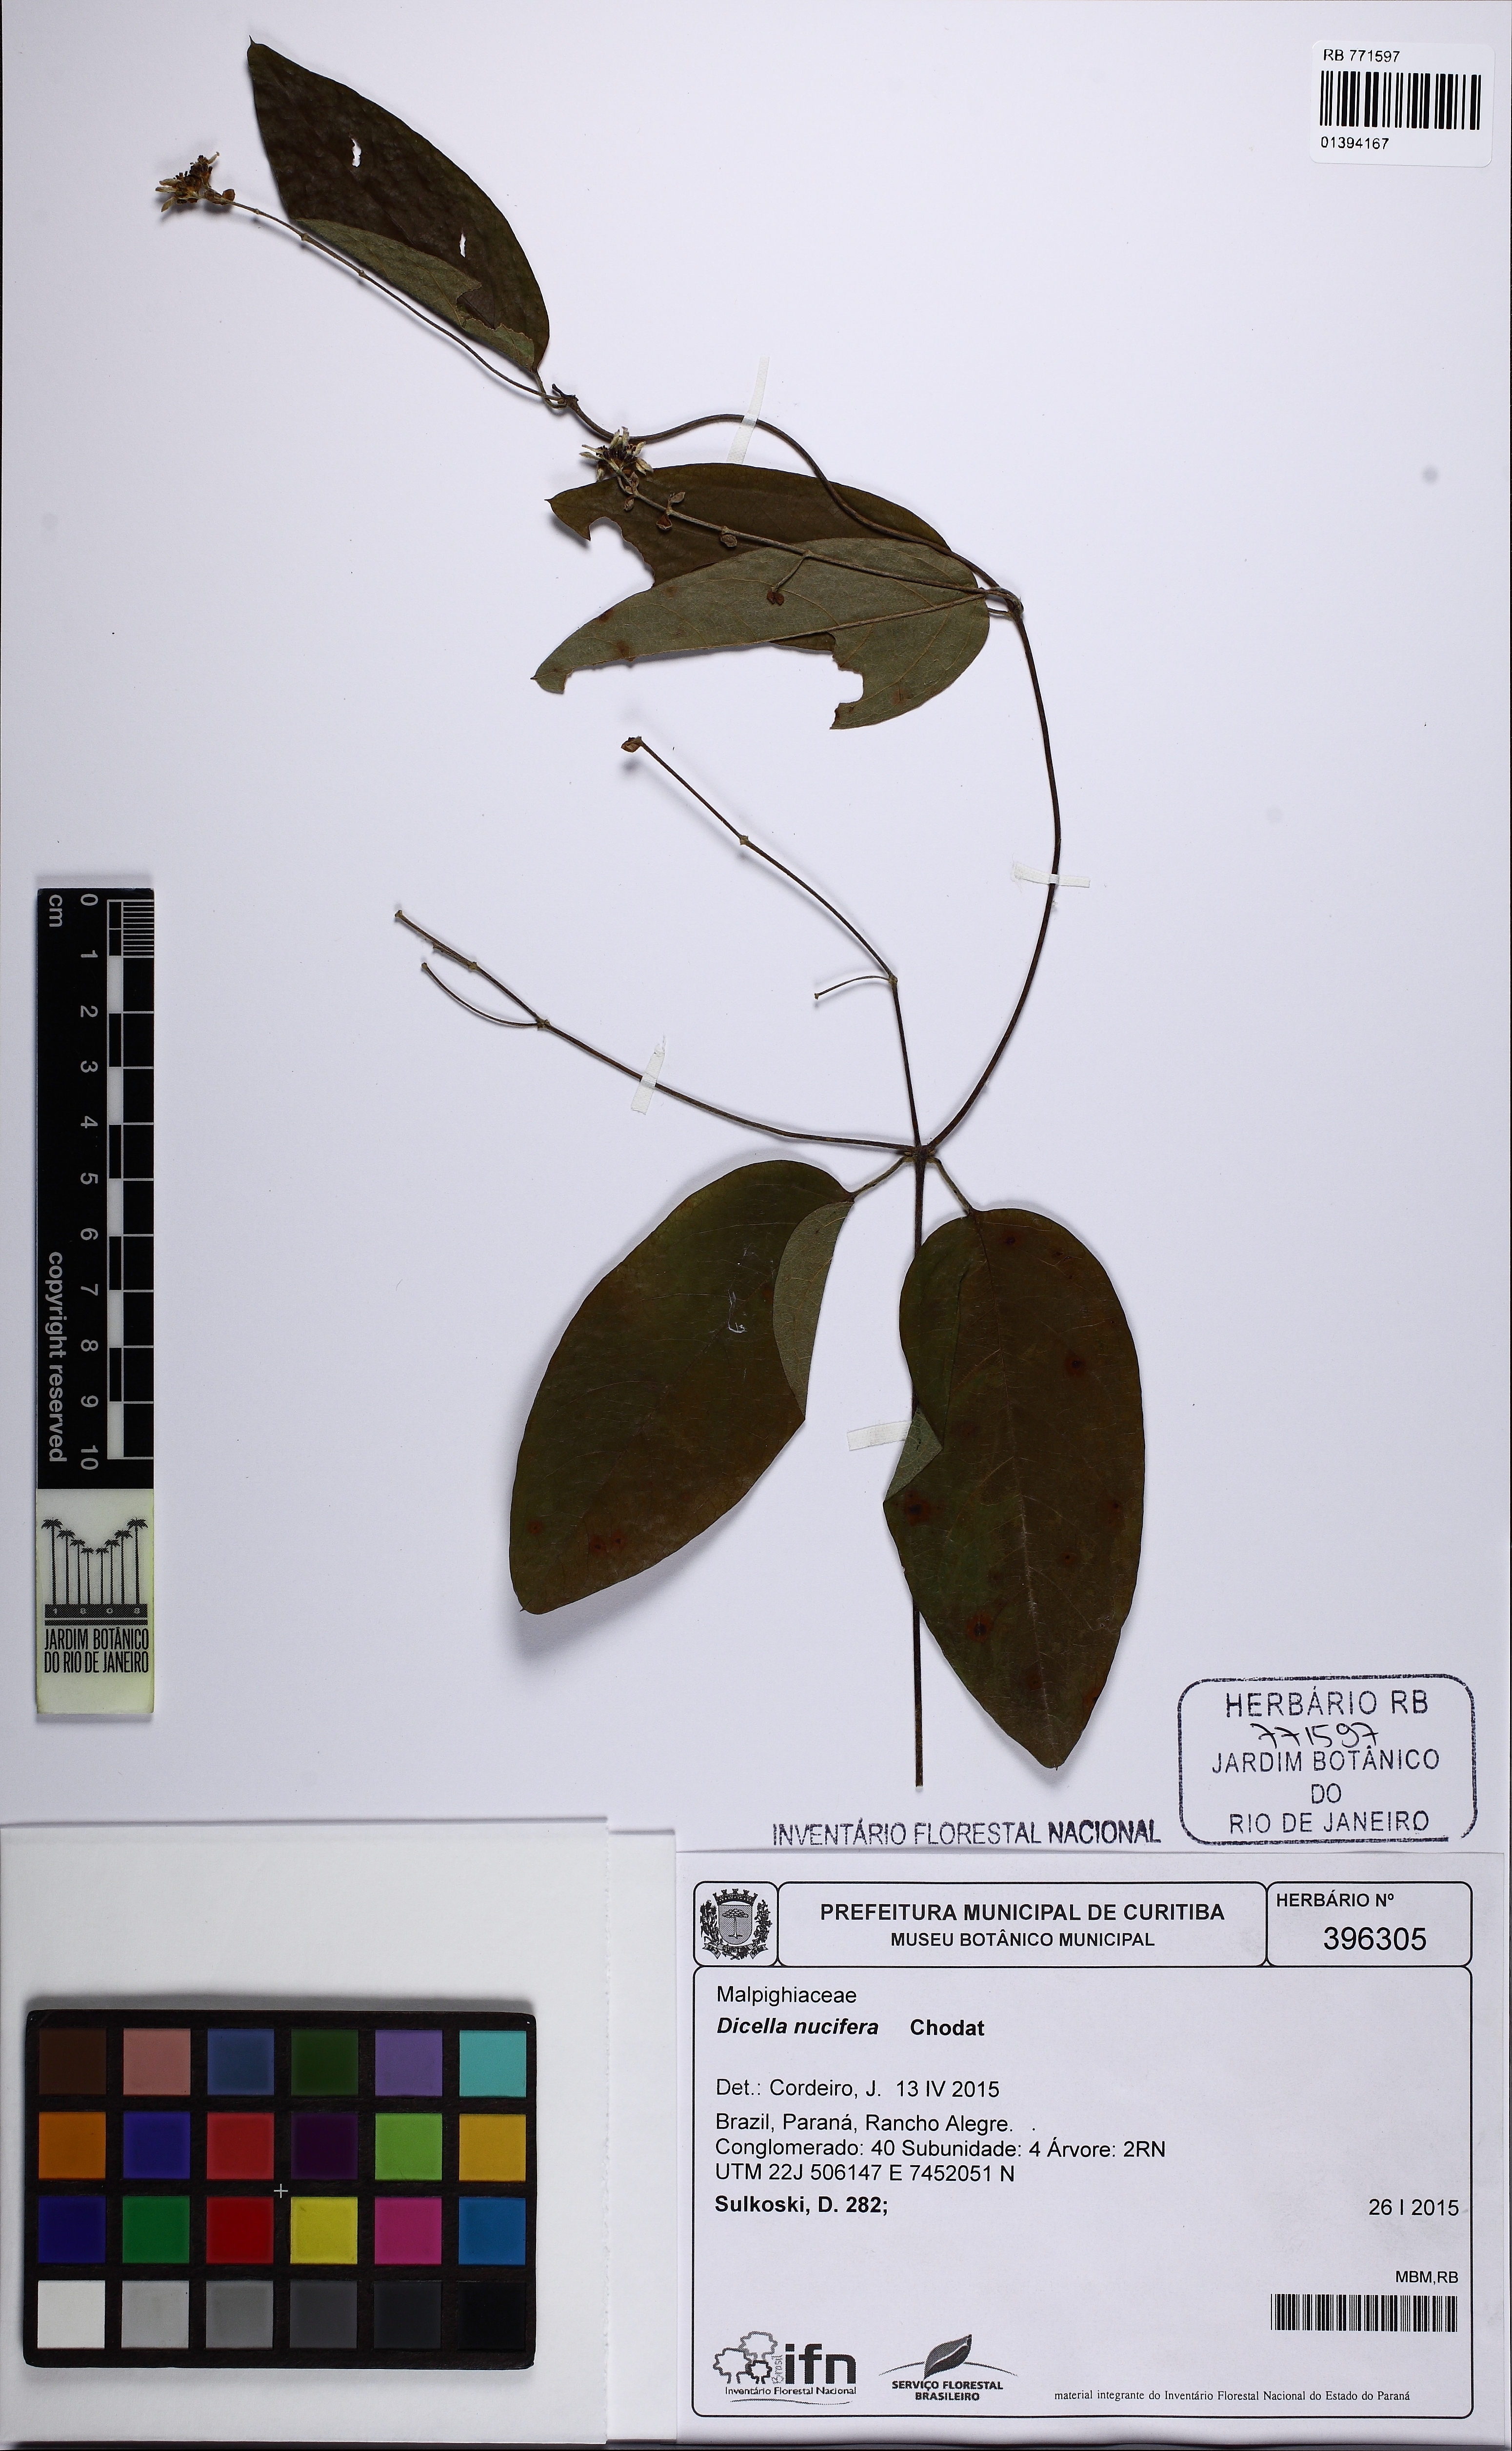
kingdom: Plantae
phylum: Tracheophyta
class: Magnoliopsida
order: Malpighiales
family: Malpighiaceae
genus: Dicella
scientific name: Dicella nucifera
